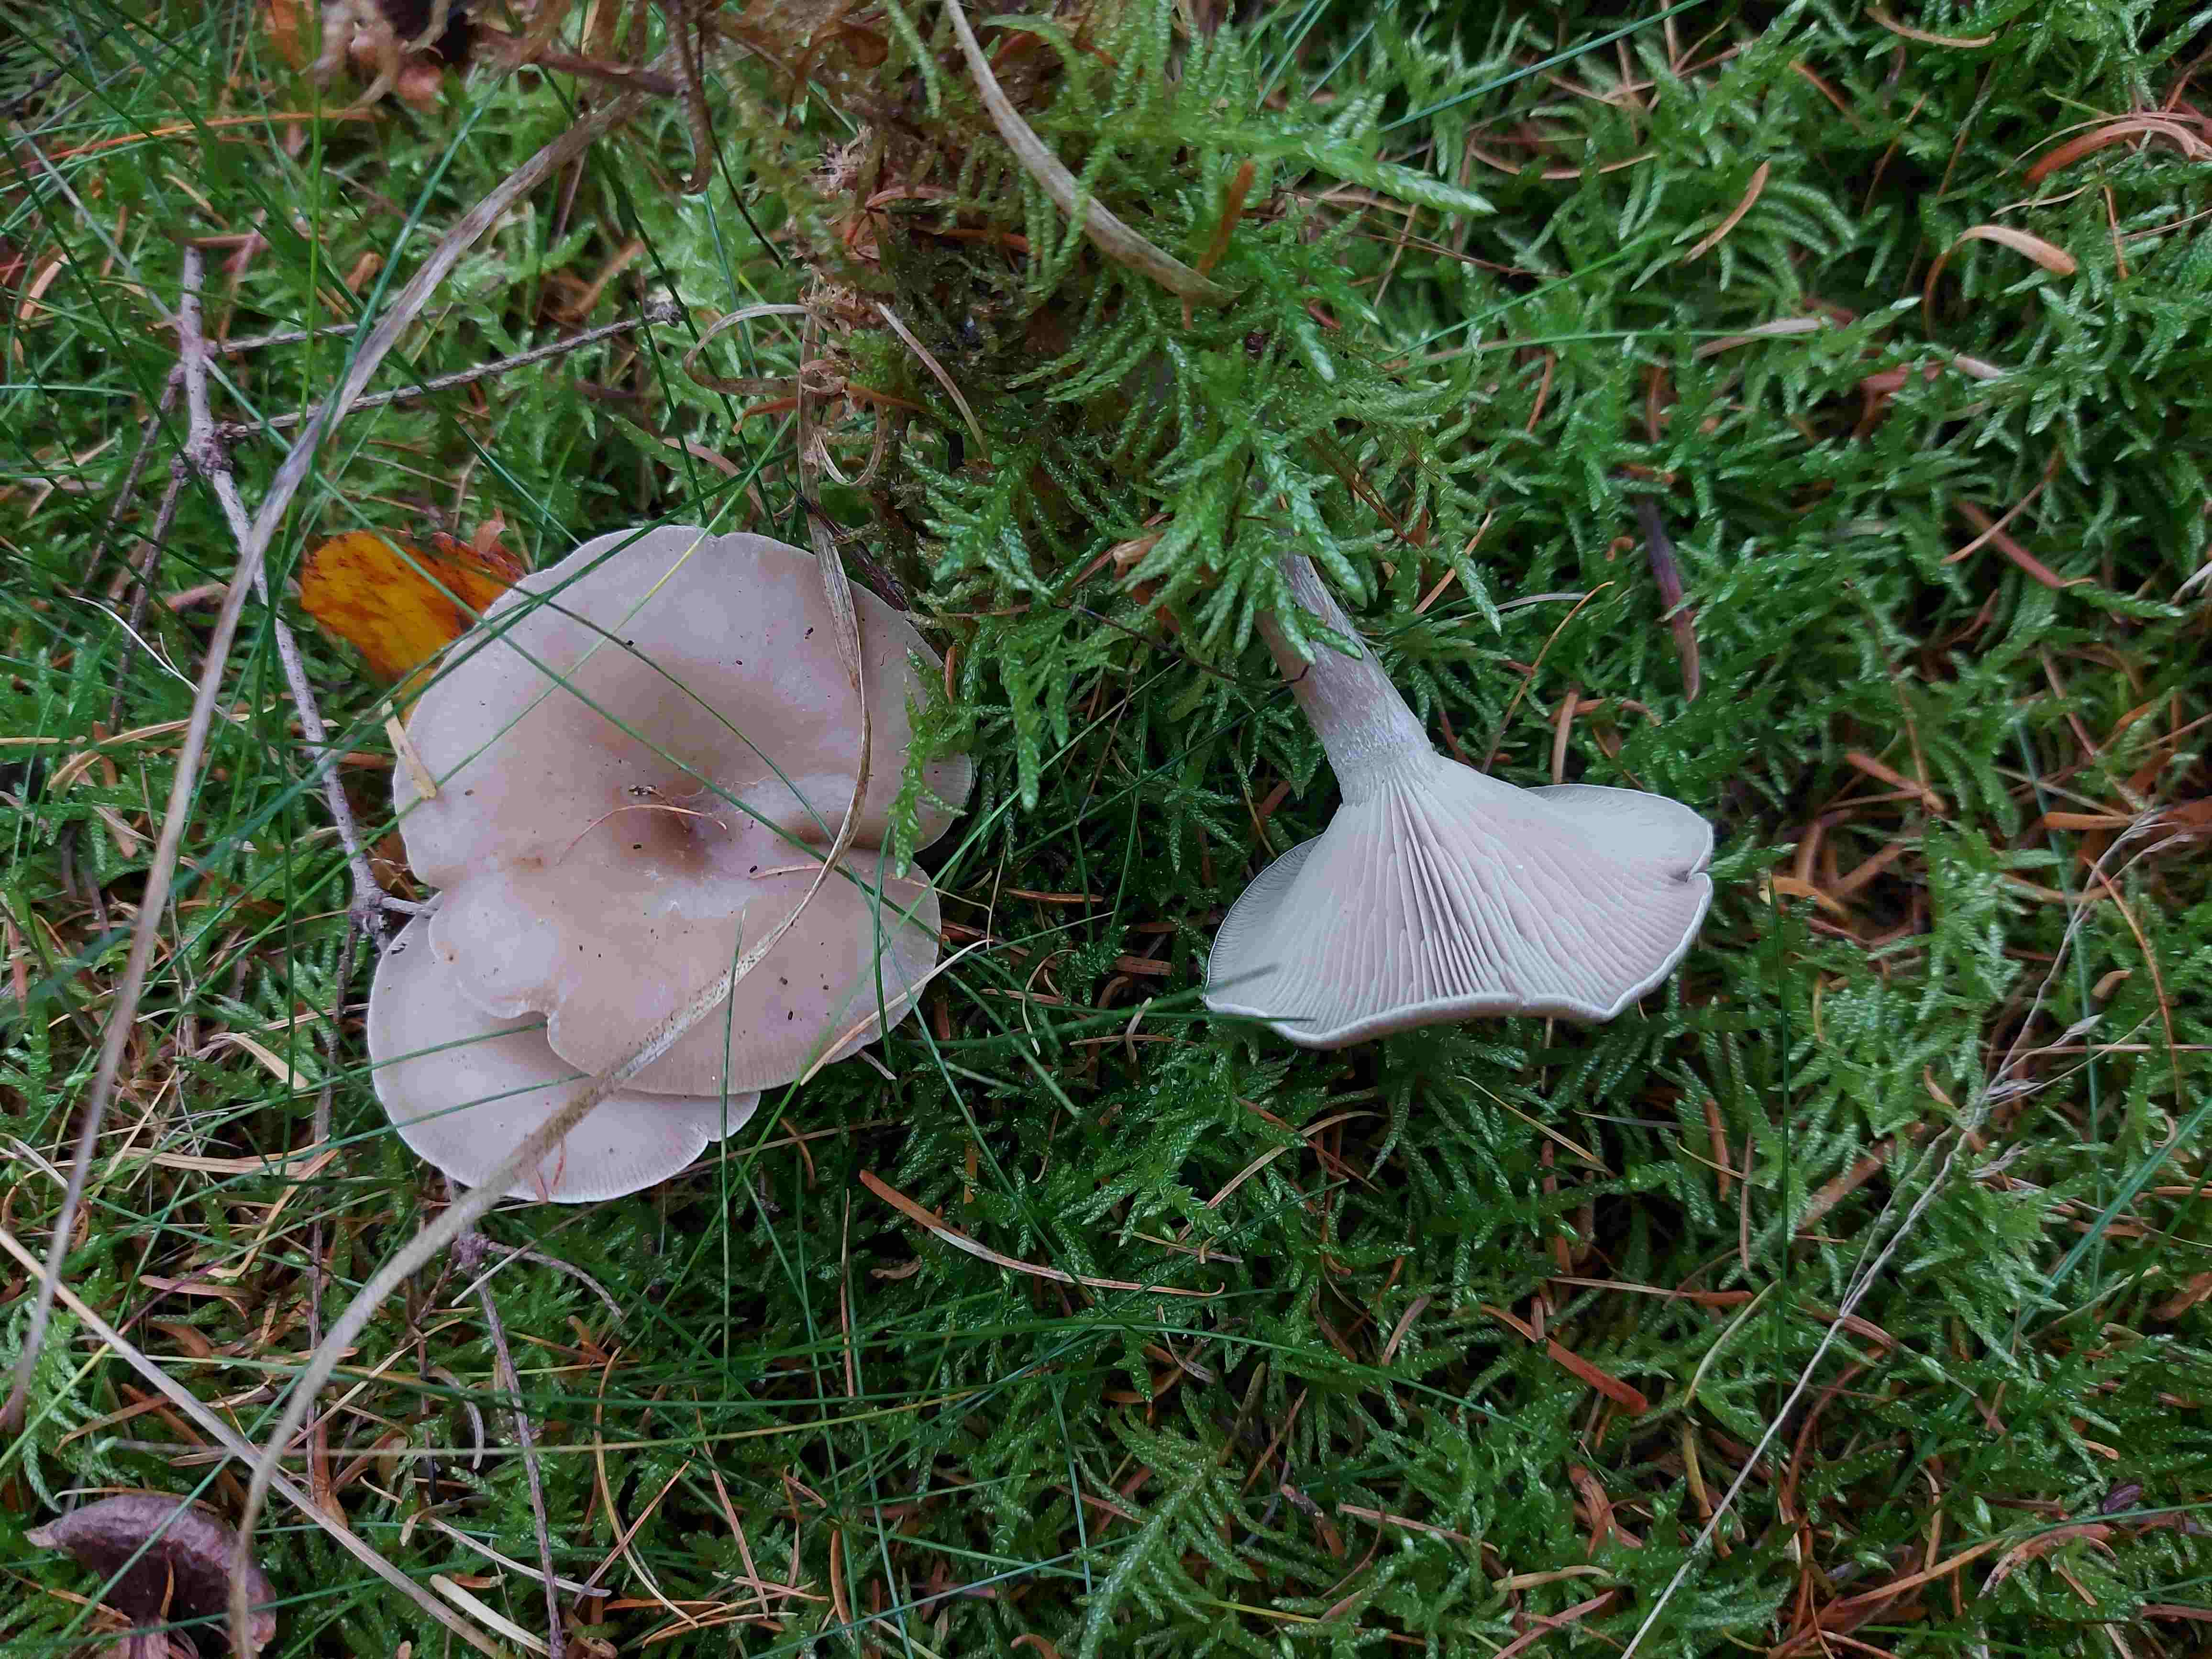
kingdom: Fungi
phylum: Basidiomycota
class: Agaricomycetes
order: Agaricales
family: Tricholomataceae
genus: Clitocybe
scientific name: Clitocybe subspadicea
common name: nitrøs tragthat
